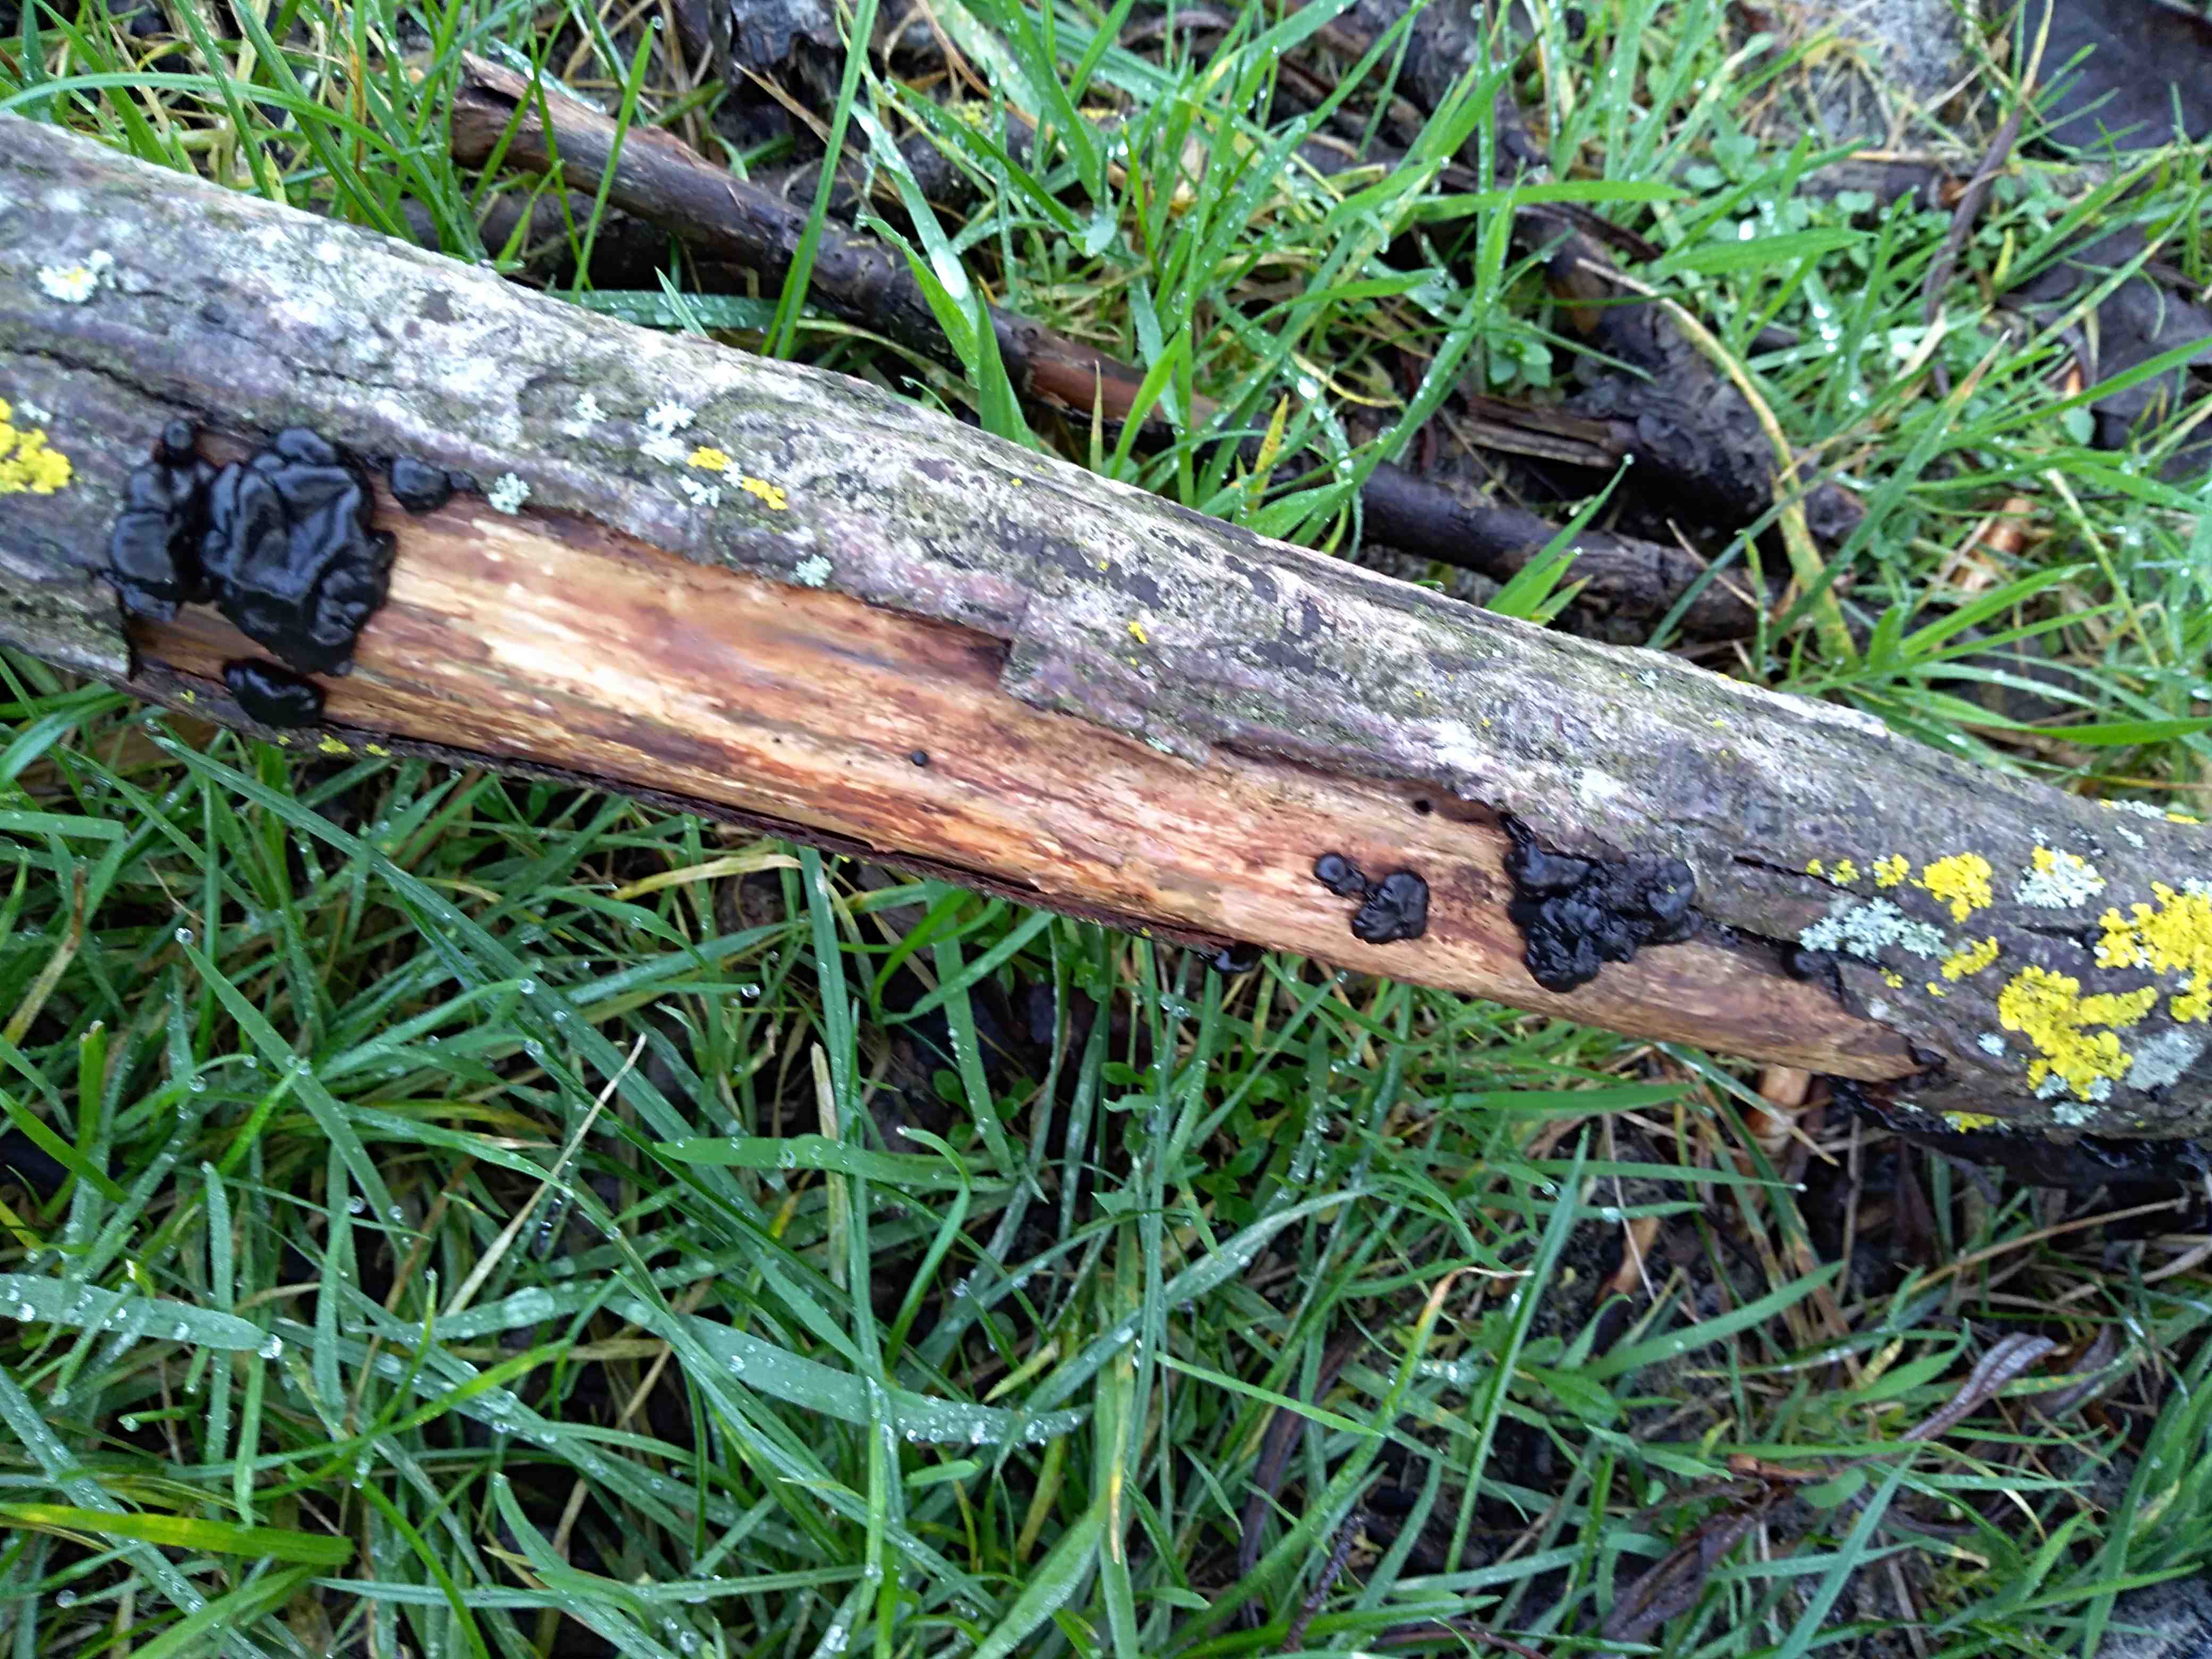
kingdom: Fungi
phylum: Basidiomycota
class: Agaricomycetes
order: Auriculariales
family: Auriculariaceae
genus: Exidia
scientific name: Exidia nigricans
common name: almindelig bævretop
